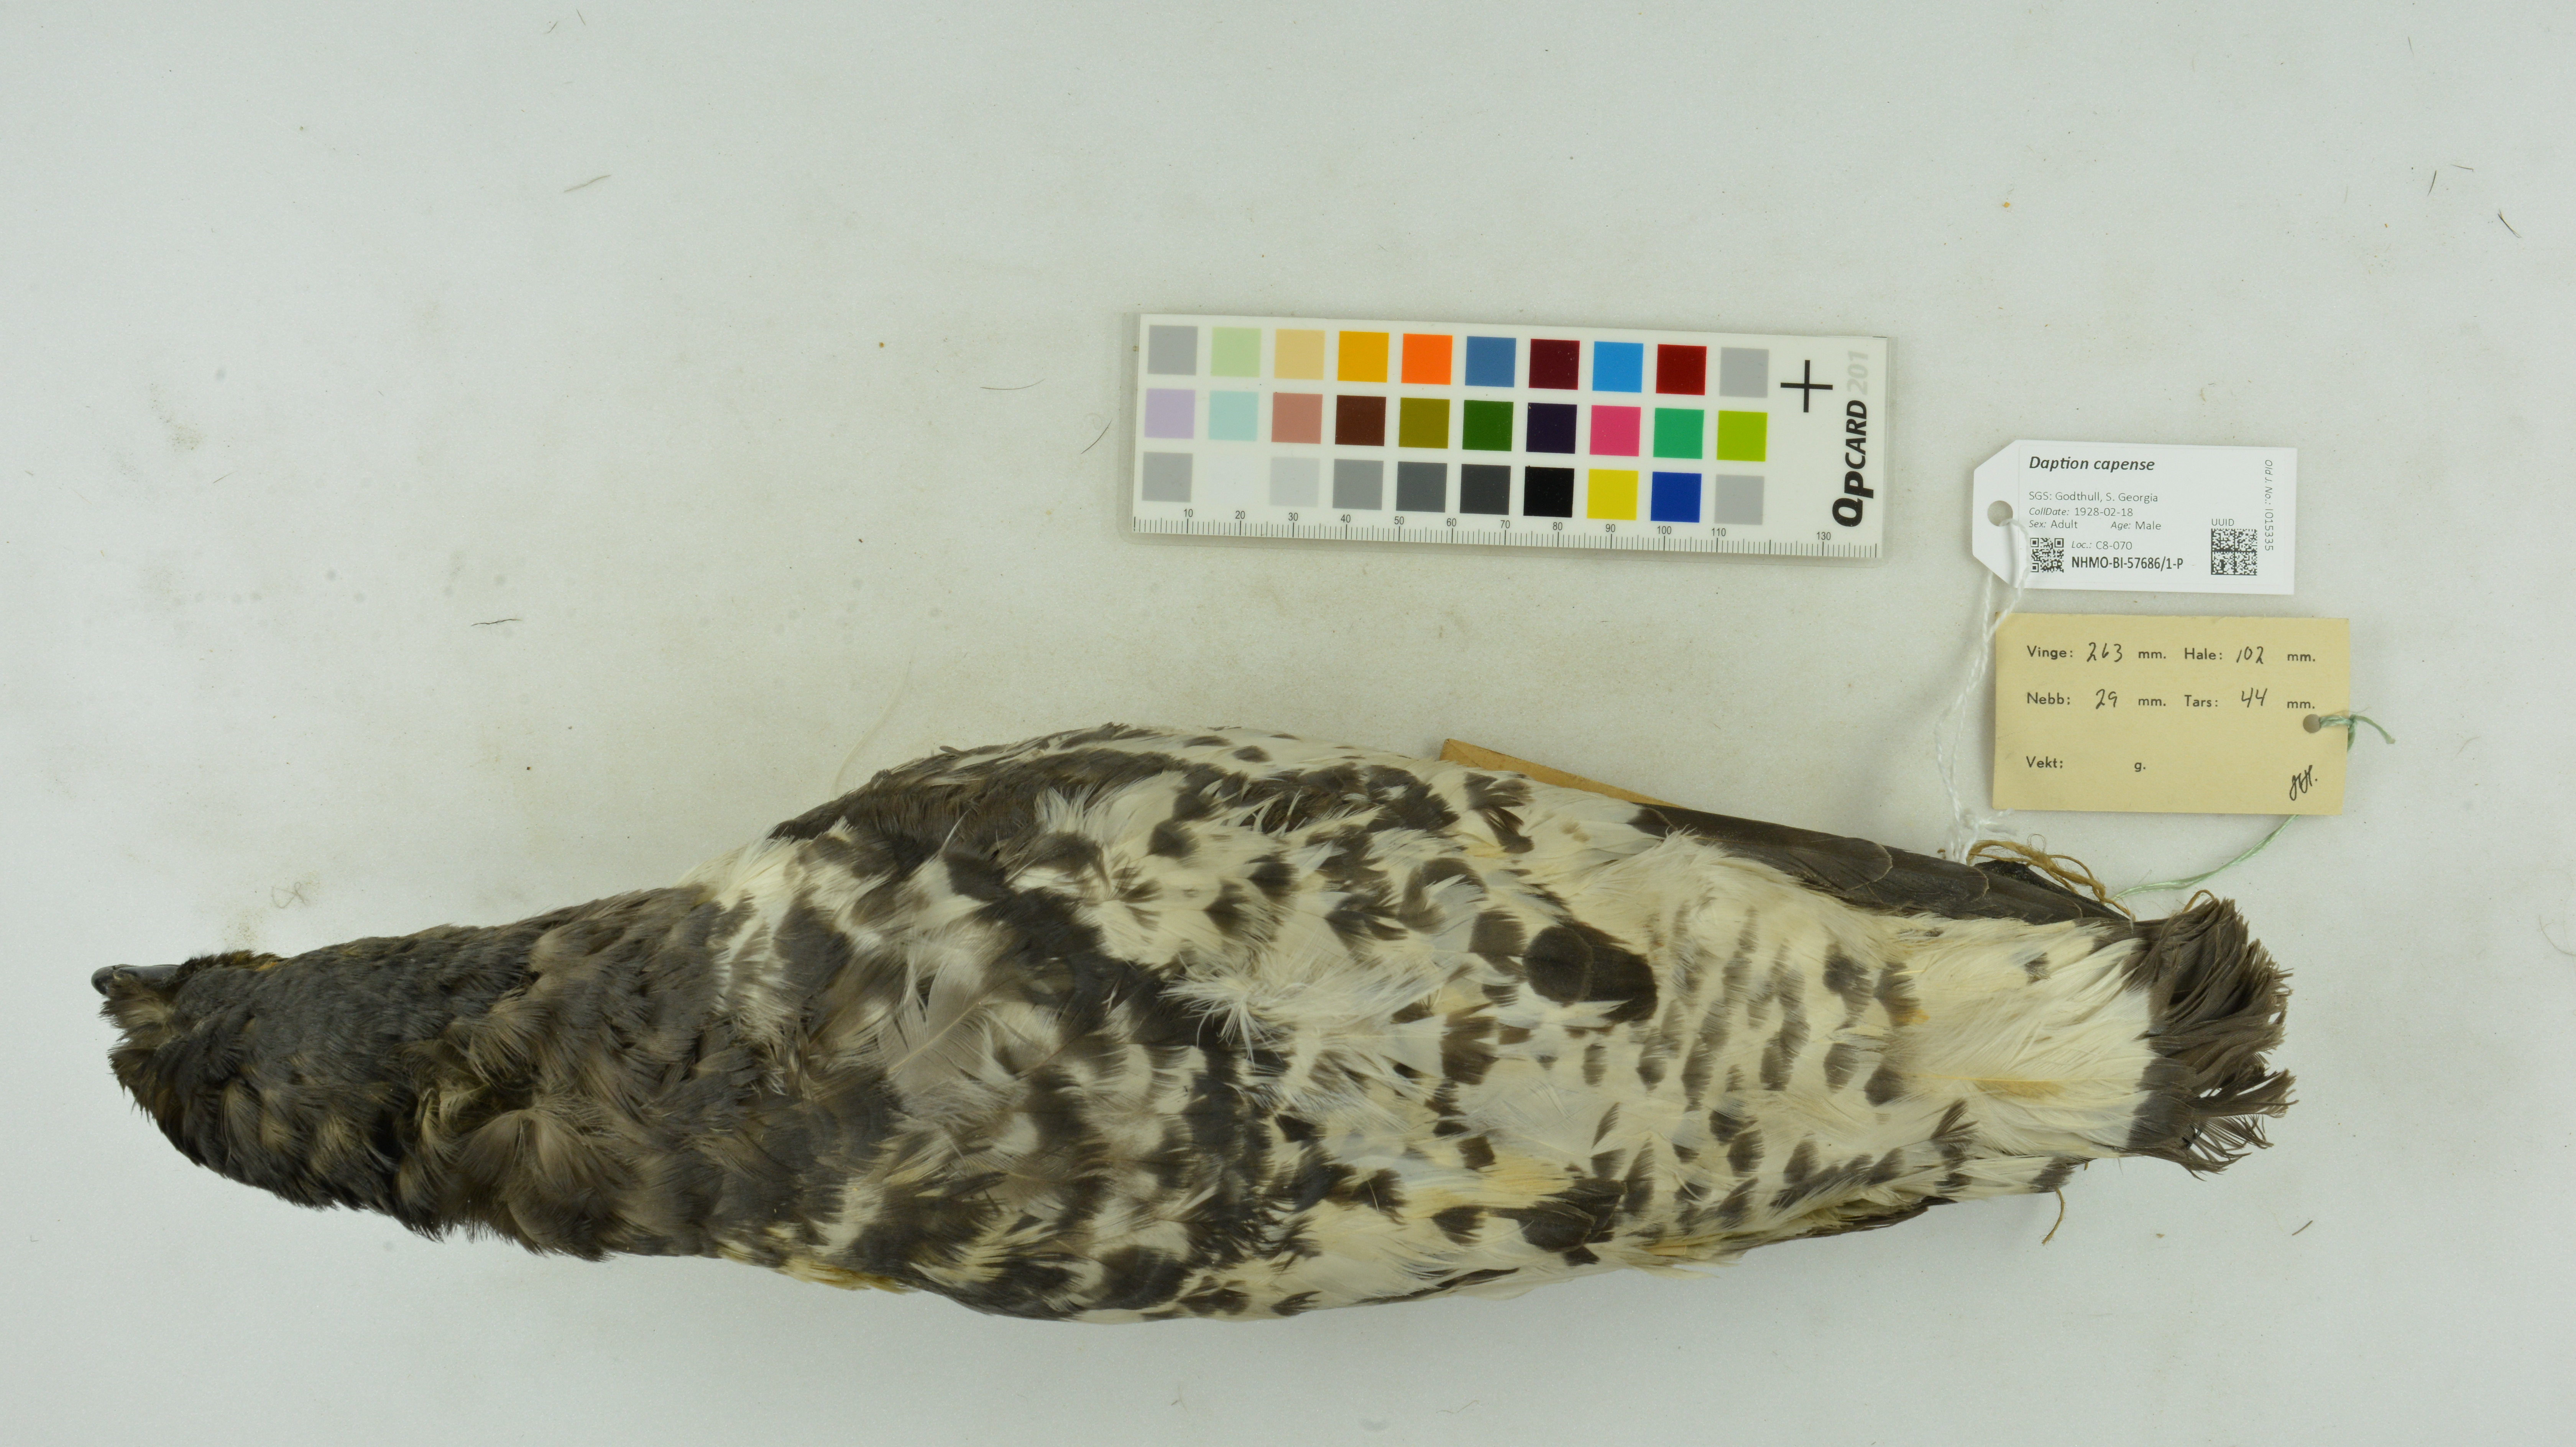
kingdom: Animalia
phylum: Chordata
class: Aves
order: Procellariiformes
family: Procellariidae
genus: Daption
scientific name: Daption capense
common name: Cape petrel
